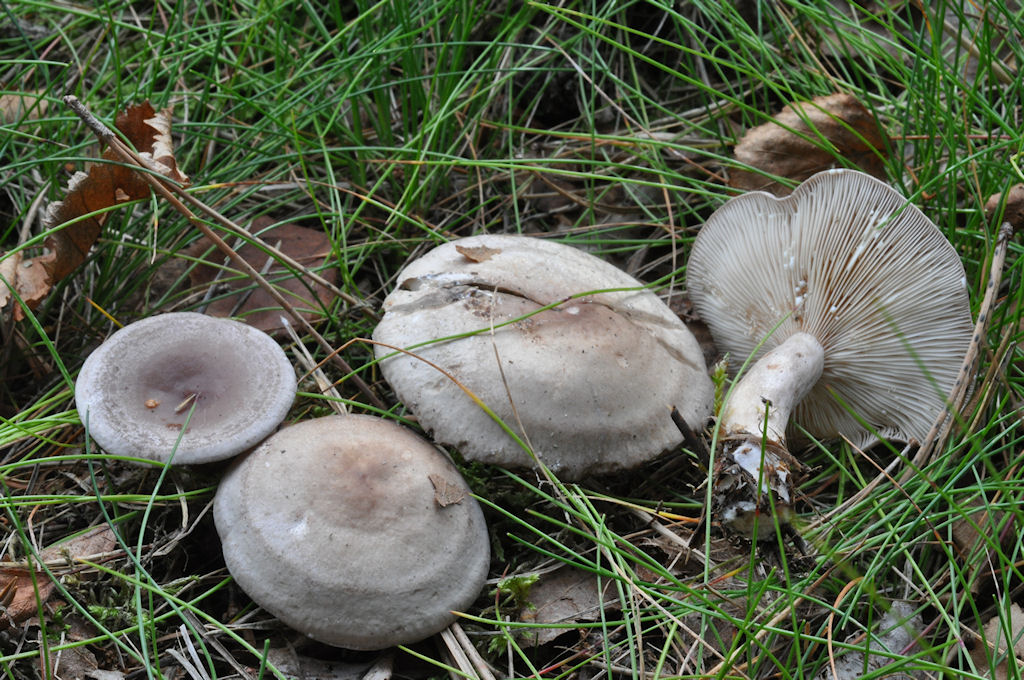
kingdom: Fungi
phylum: Basidiomycota
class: Agaricomycetes
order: Russulales
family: Russulaceae
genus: Lactarius
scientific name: Lactarius vietus
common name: violetgrå mælkehat
